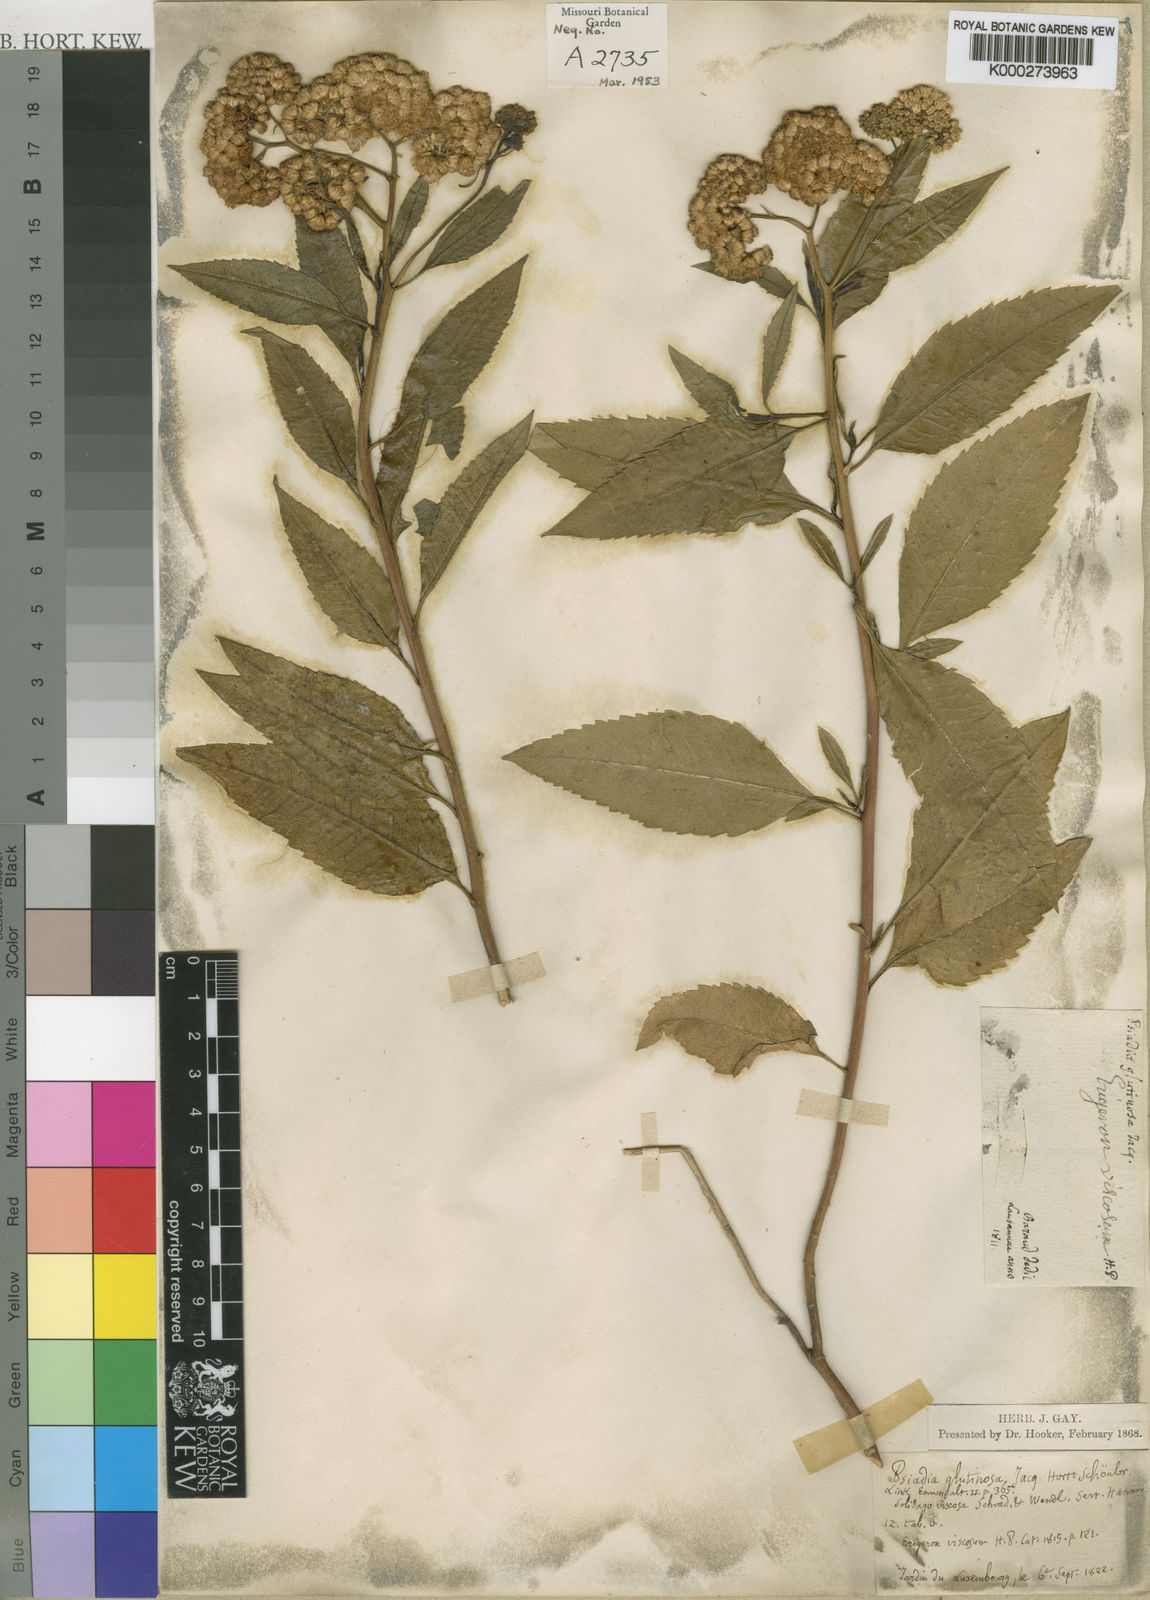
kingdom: Plantae
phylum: Tracheophyta
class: Magnoliopsida
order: Asterales
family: Asteraceae
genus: Psiadia
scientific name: Psiadia glutinosa
